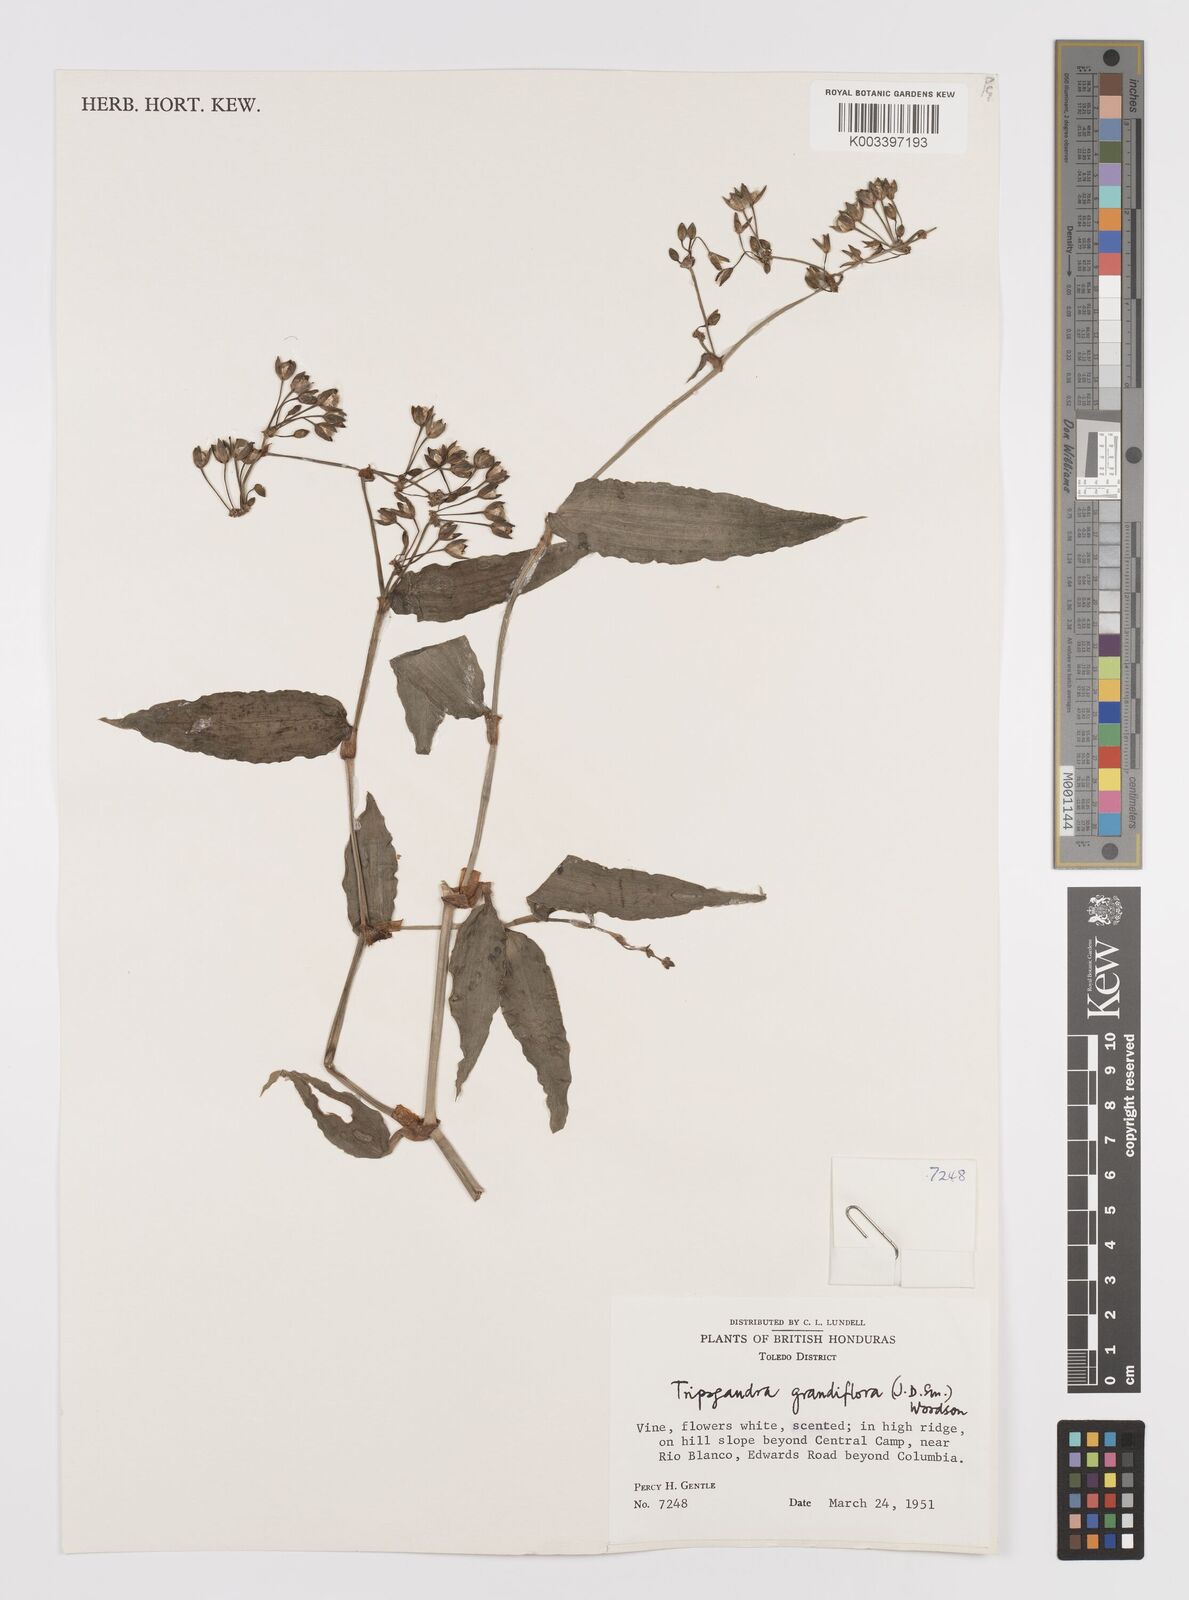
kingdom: Plantae
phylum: Tracheophyta
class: Liliopsida
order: Commelinales
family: Commelinaceae
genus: Callisia
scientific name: Callisia grandiflora
